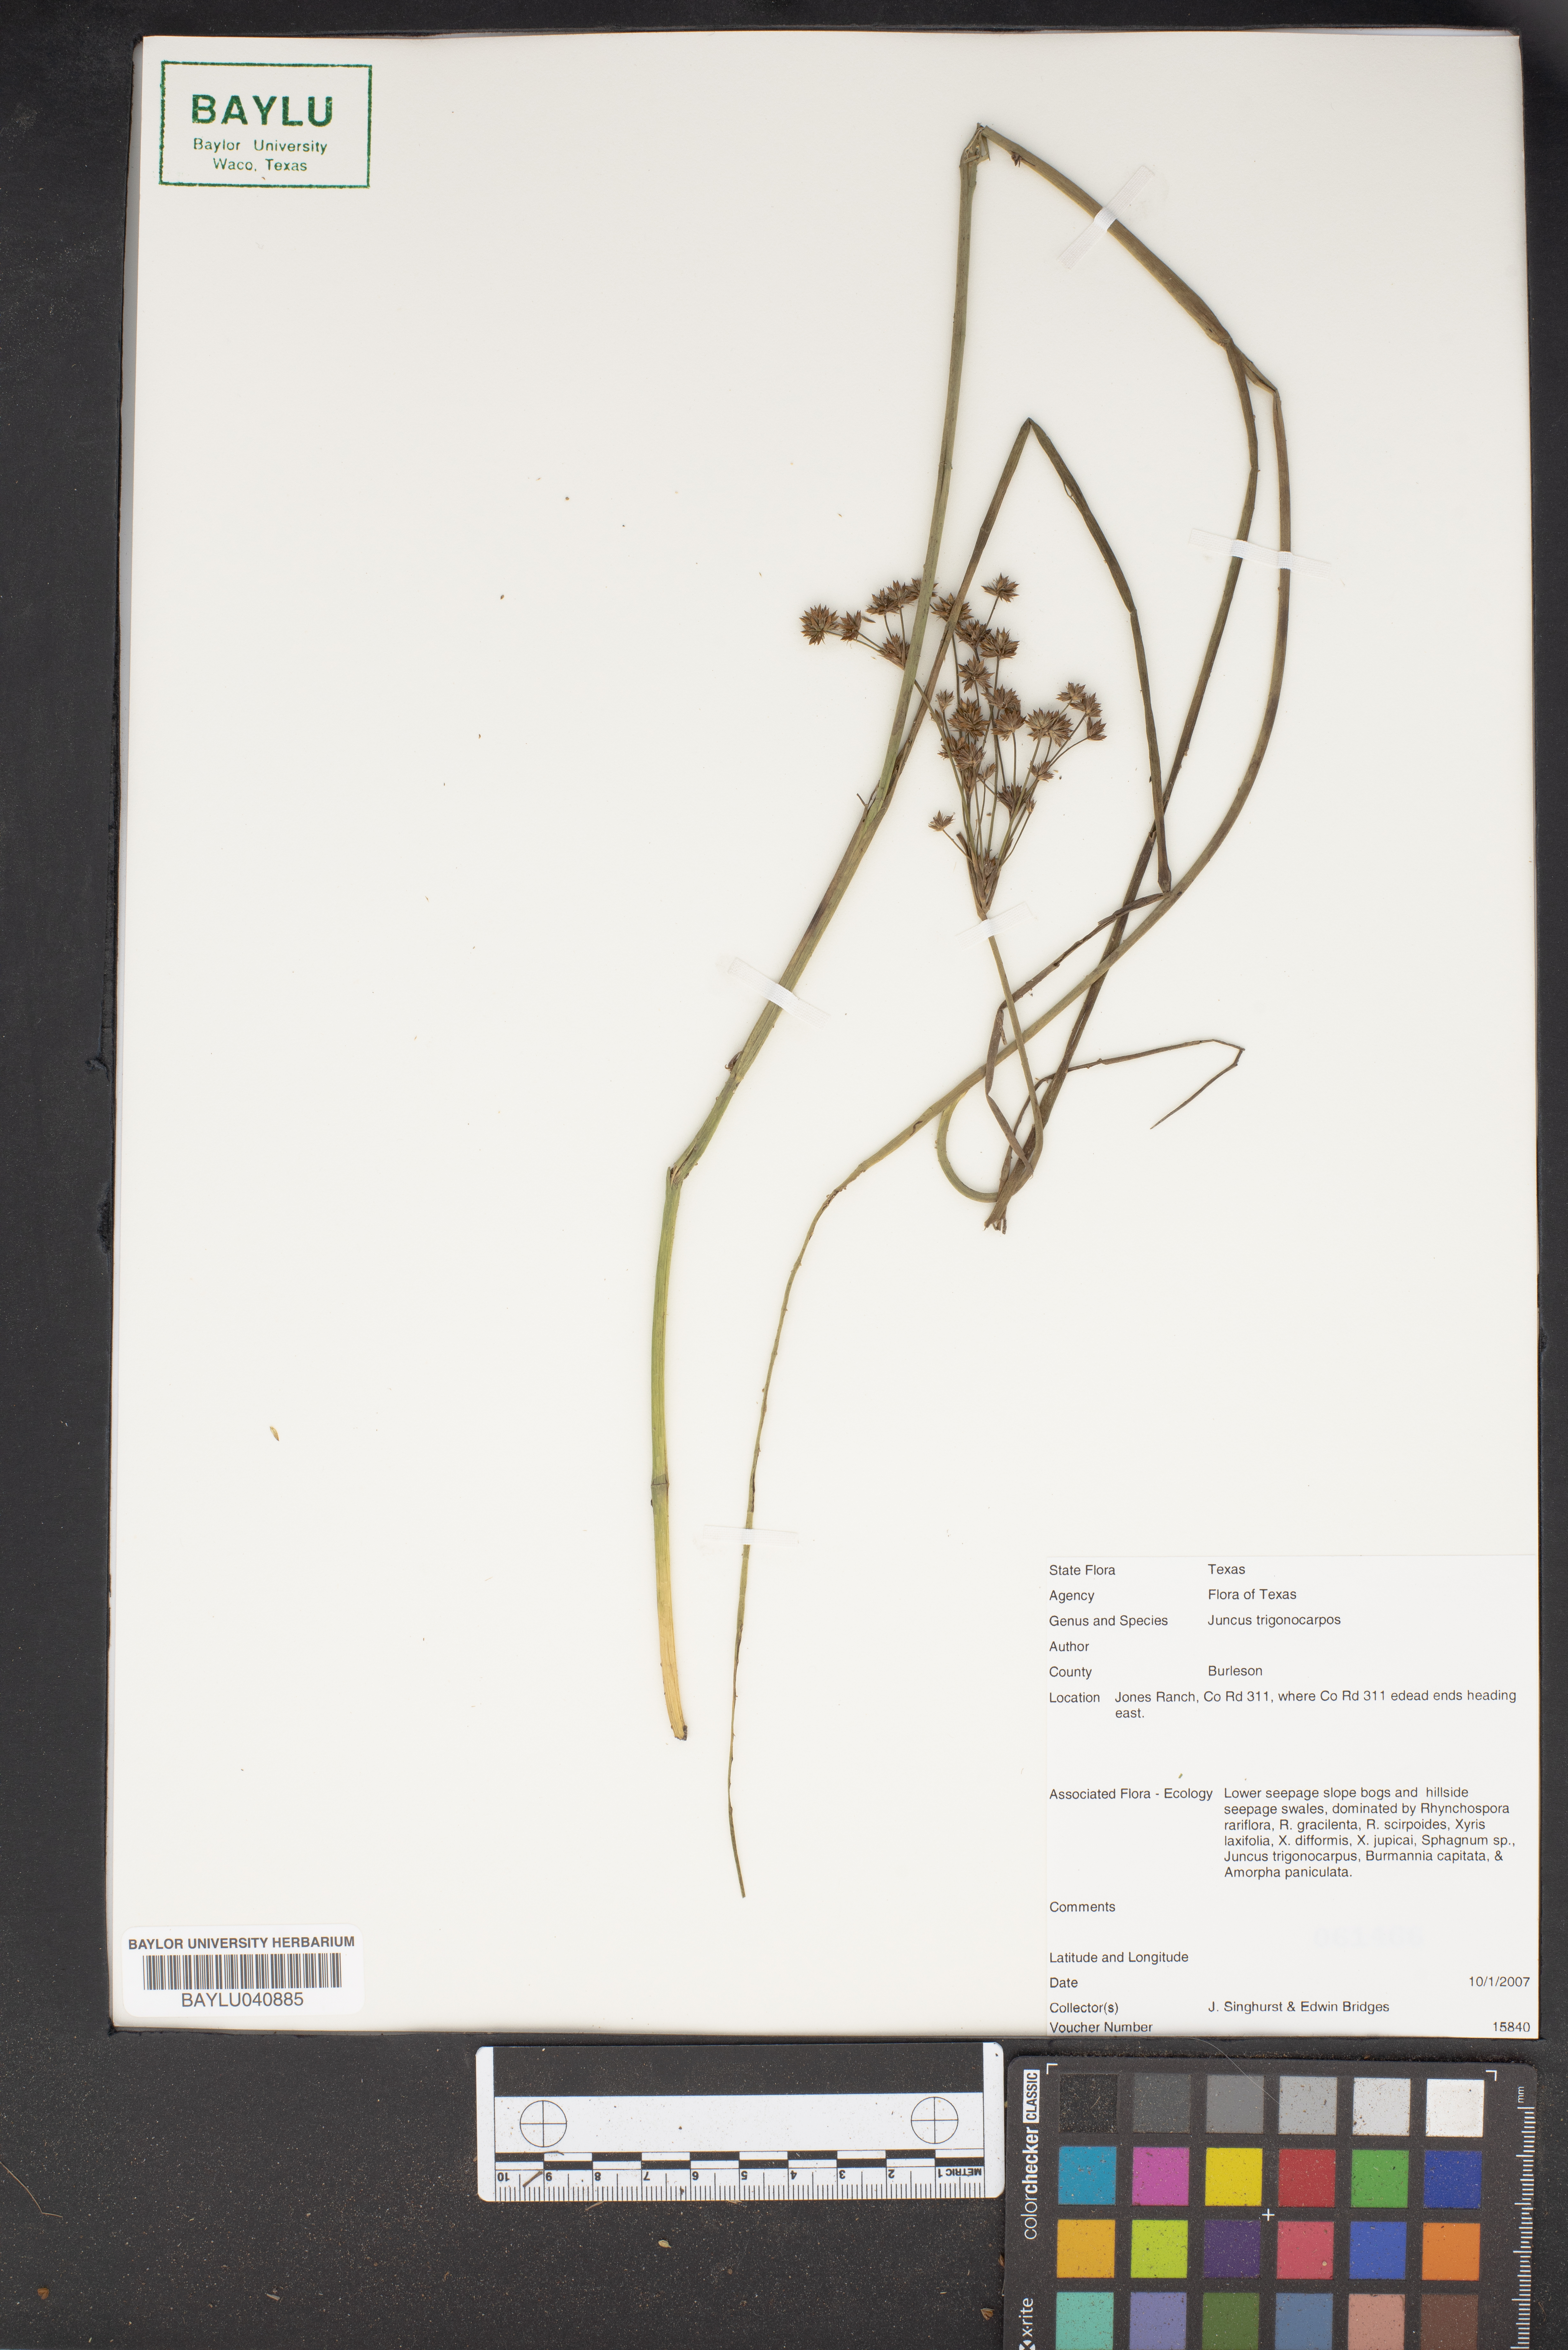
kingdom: Plantae
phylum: Tracheophyta
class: Liliopsida
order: Poales
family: Juncaceae
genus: Juncus
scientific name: Juncus trigonocarpus
